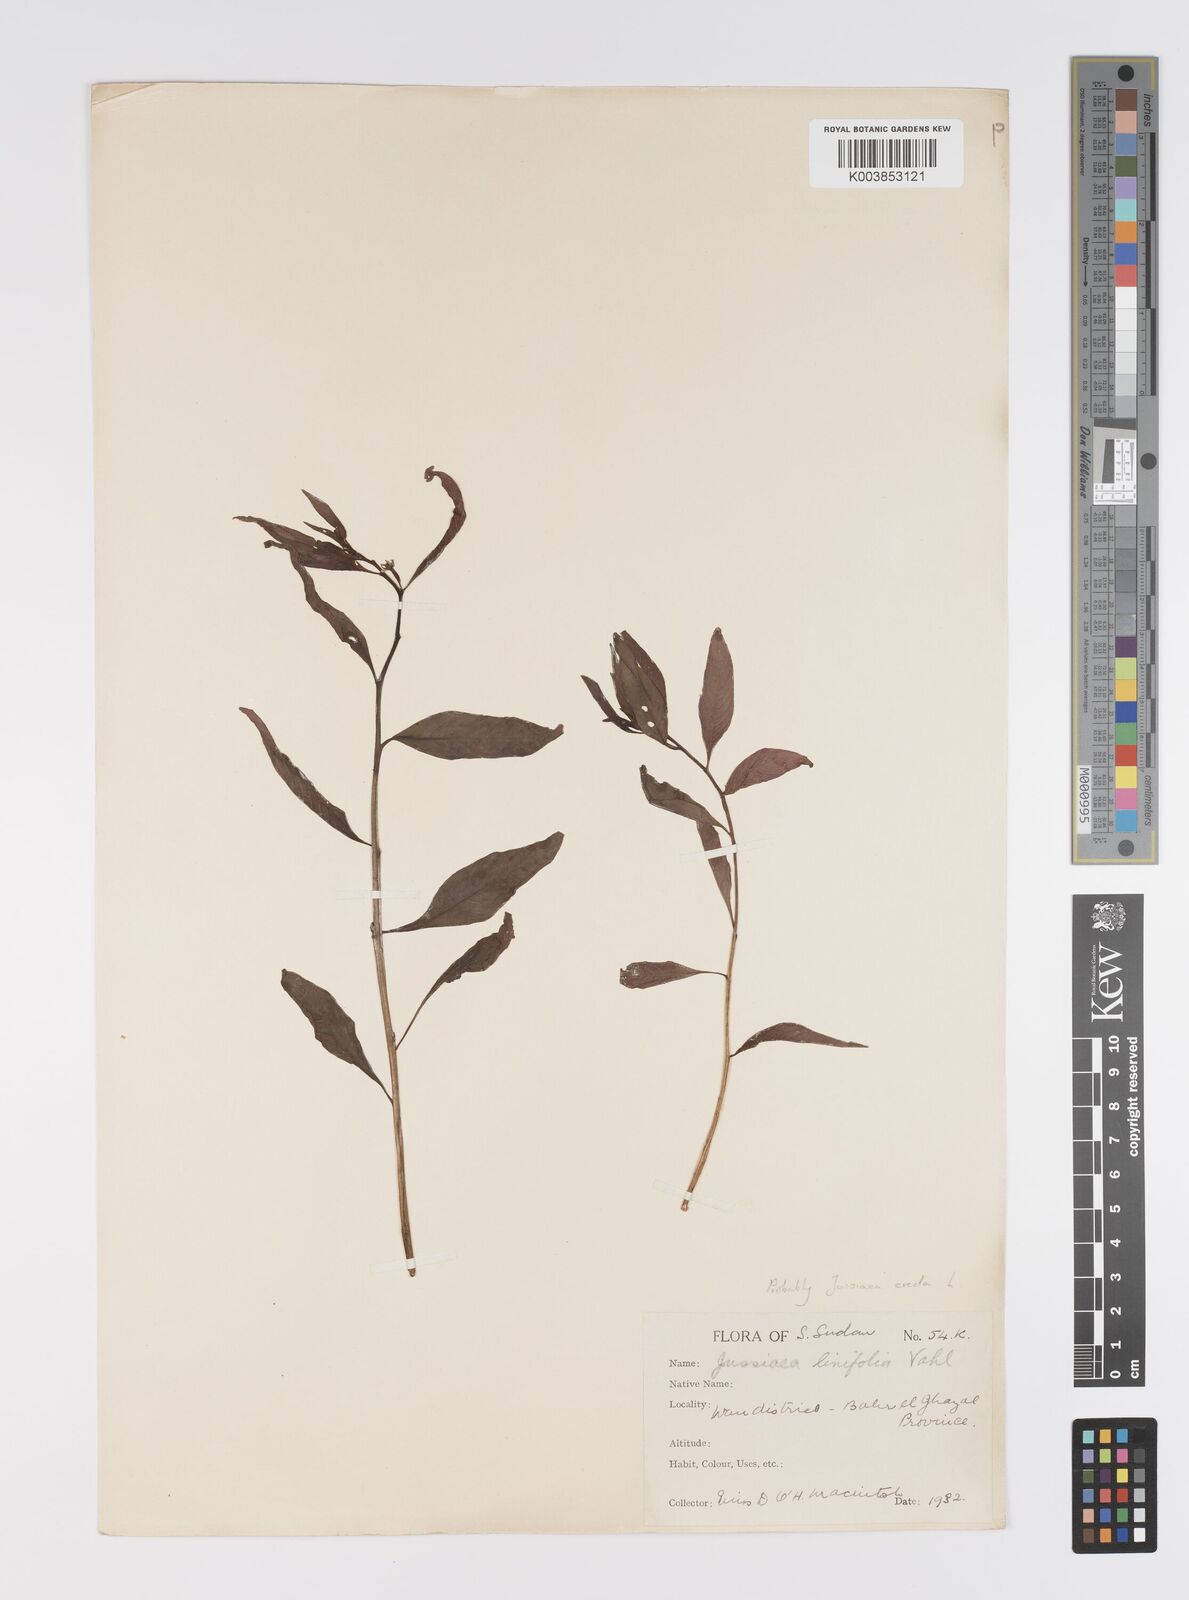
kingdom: Plantae
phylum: Tracheophyta
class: Magnoliopsida
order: Myrtales
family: Onagraceae
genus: Ludwigia
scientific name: Ludwigia erecta
